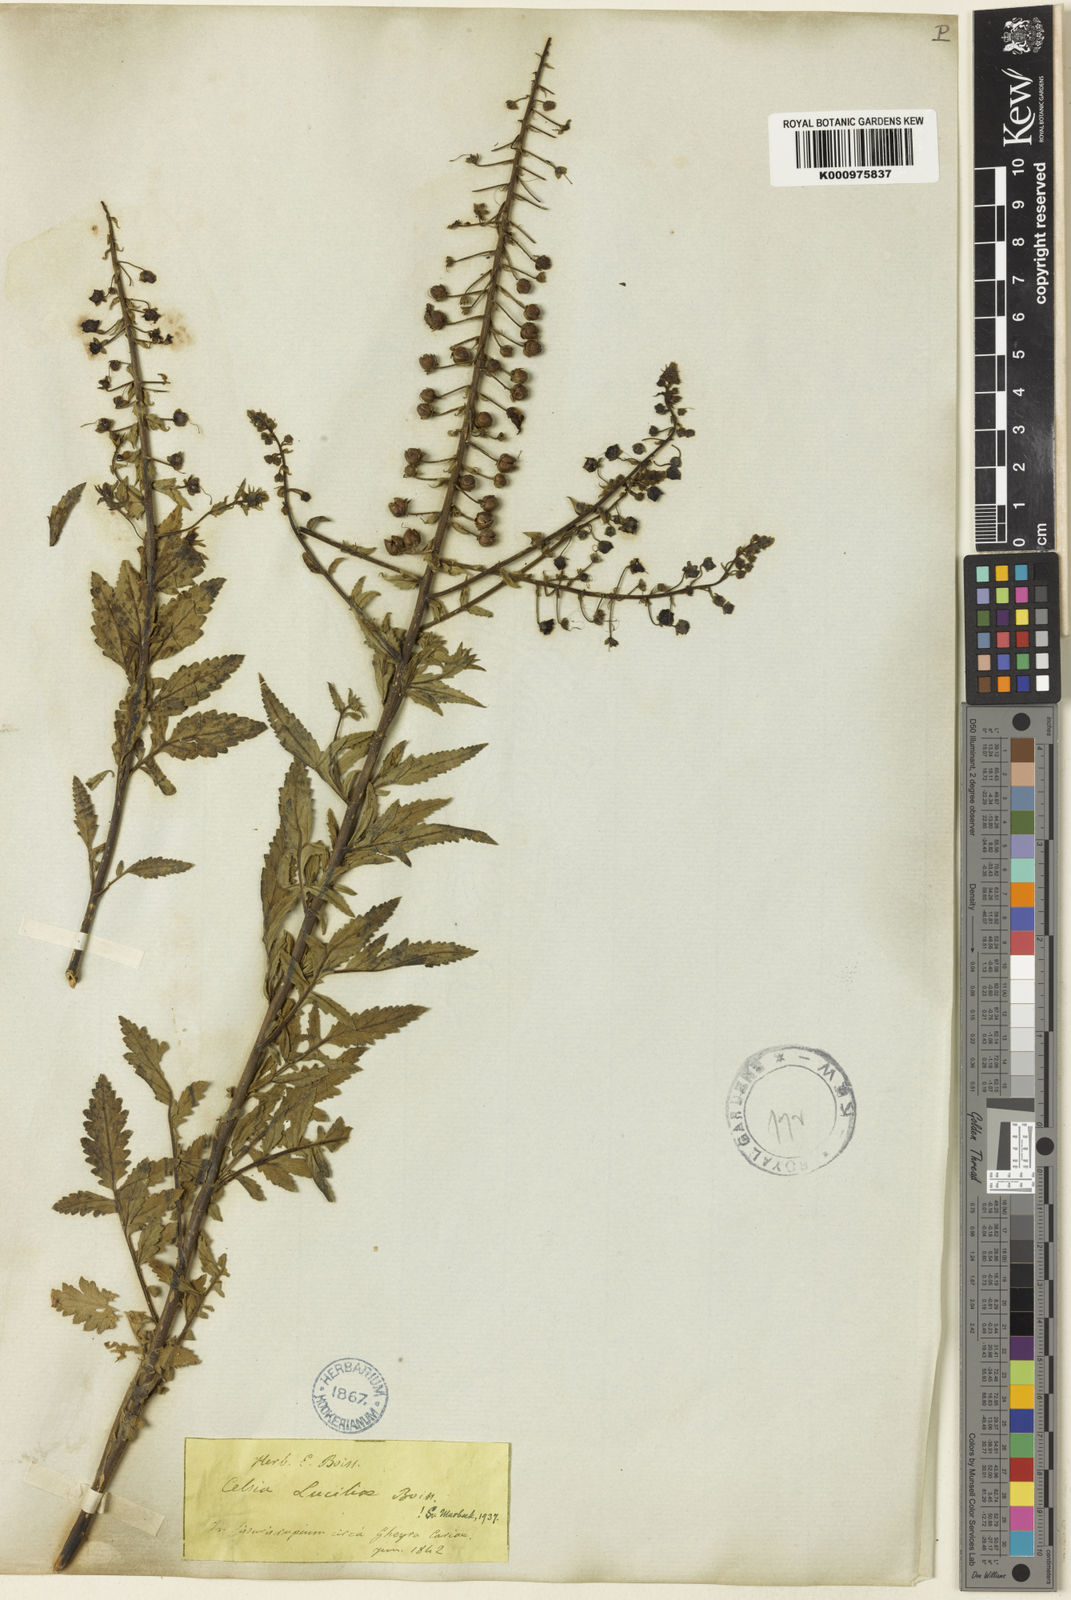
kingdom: Plantae
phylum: Tracheophyta
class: Magnoliopsida
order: Lamiales
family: Scrophulariaceae
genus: Verbascum
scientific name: Verbascum luciliae
